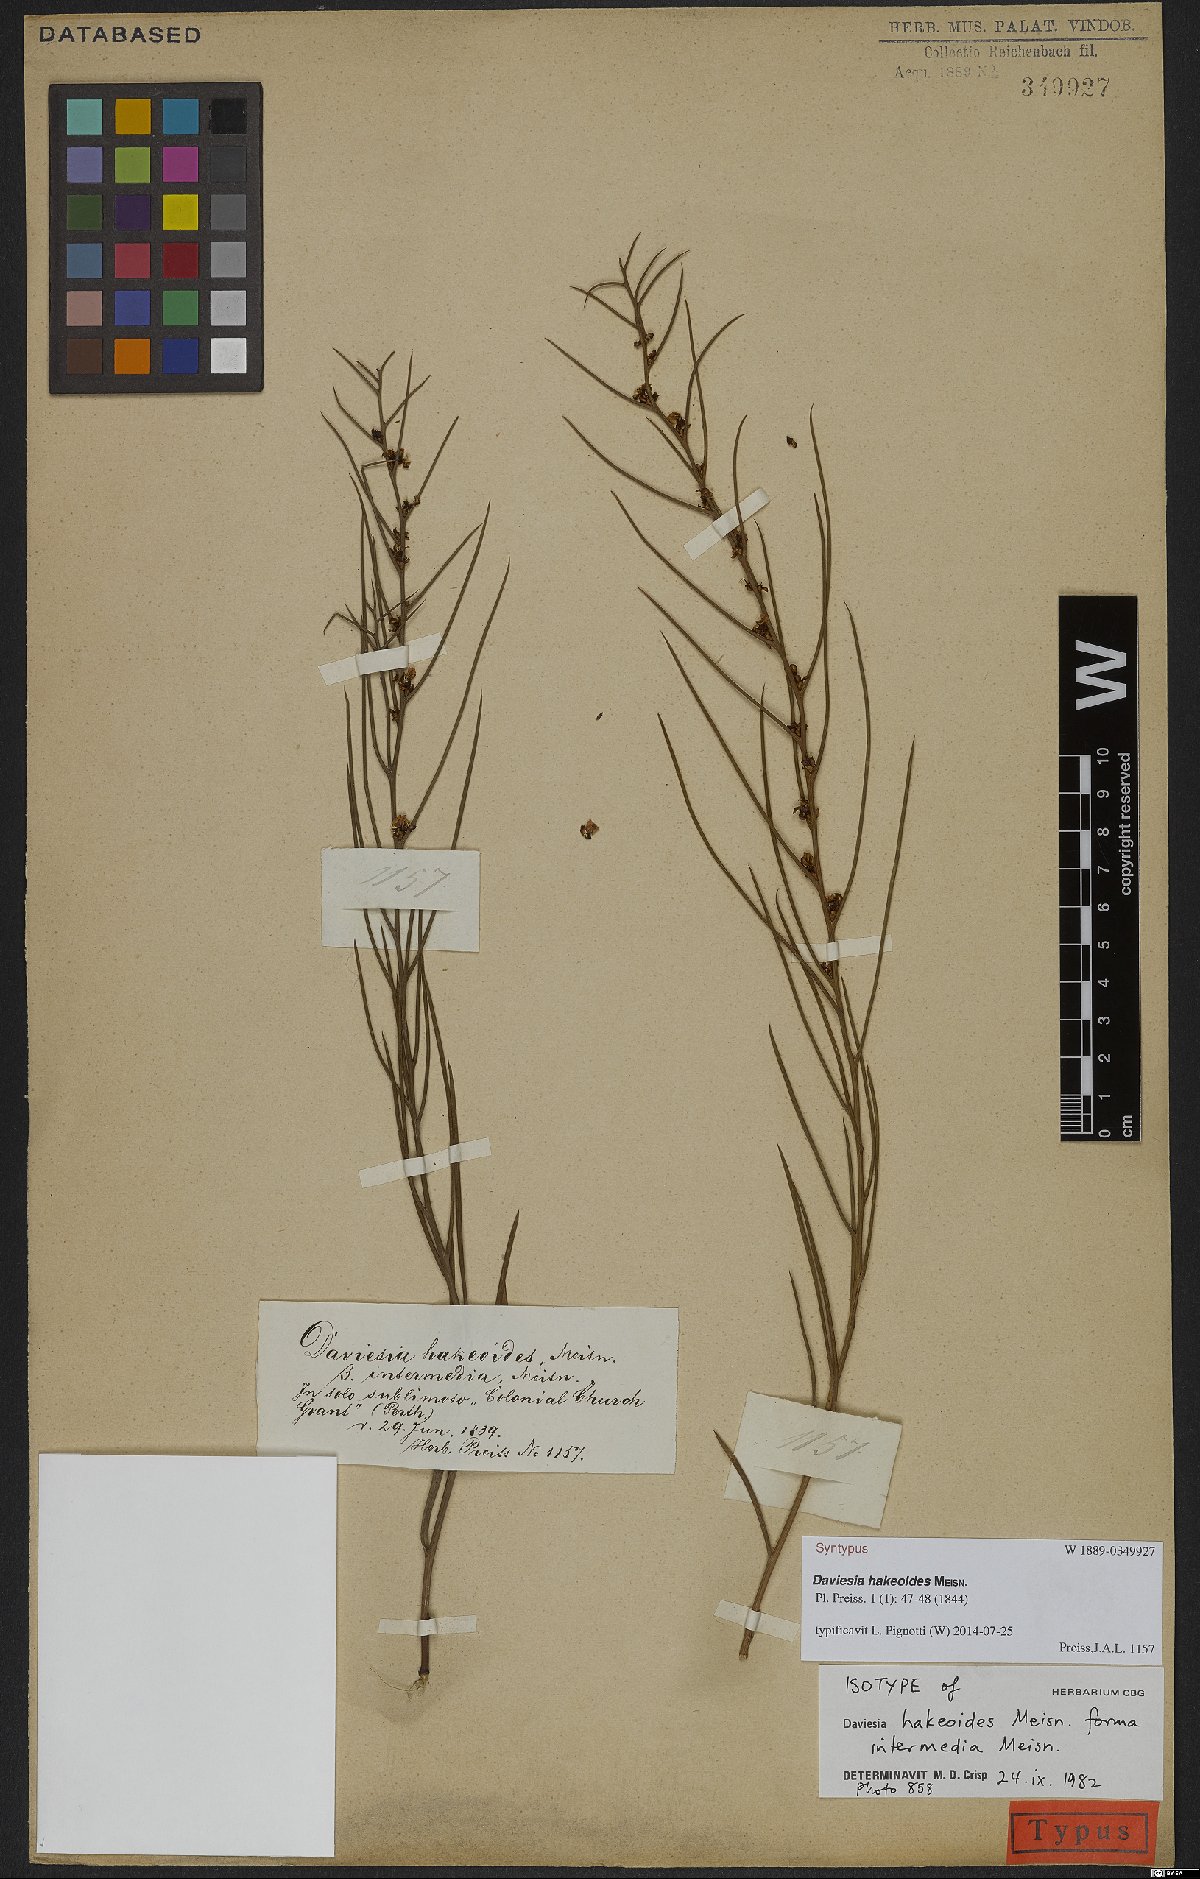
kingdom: Plantae
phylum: Tracheophyta
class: Magnoliopsida
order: Fabales
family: Fabaceae
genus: Daviesia
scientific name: Daviesia hakeoides
